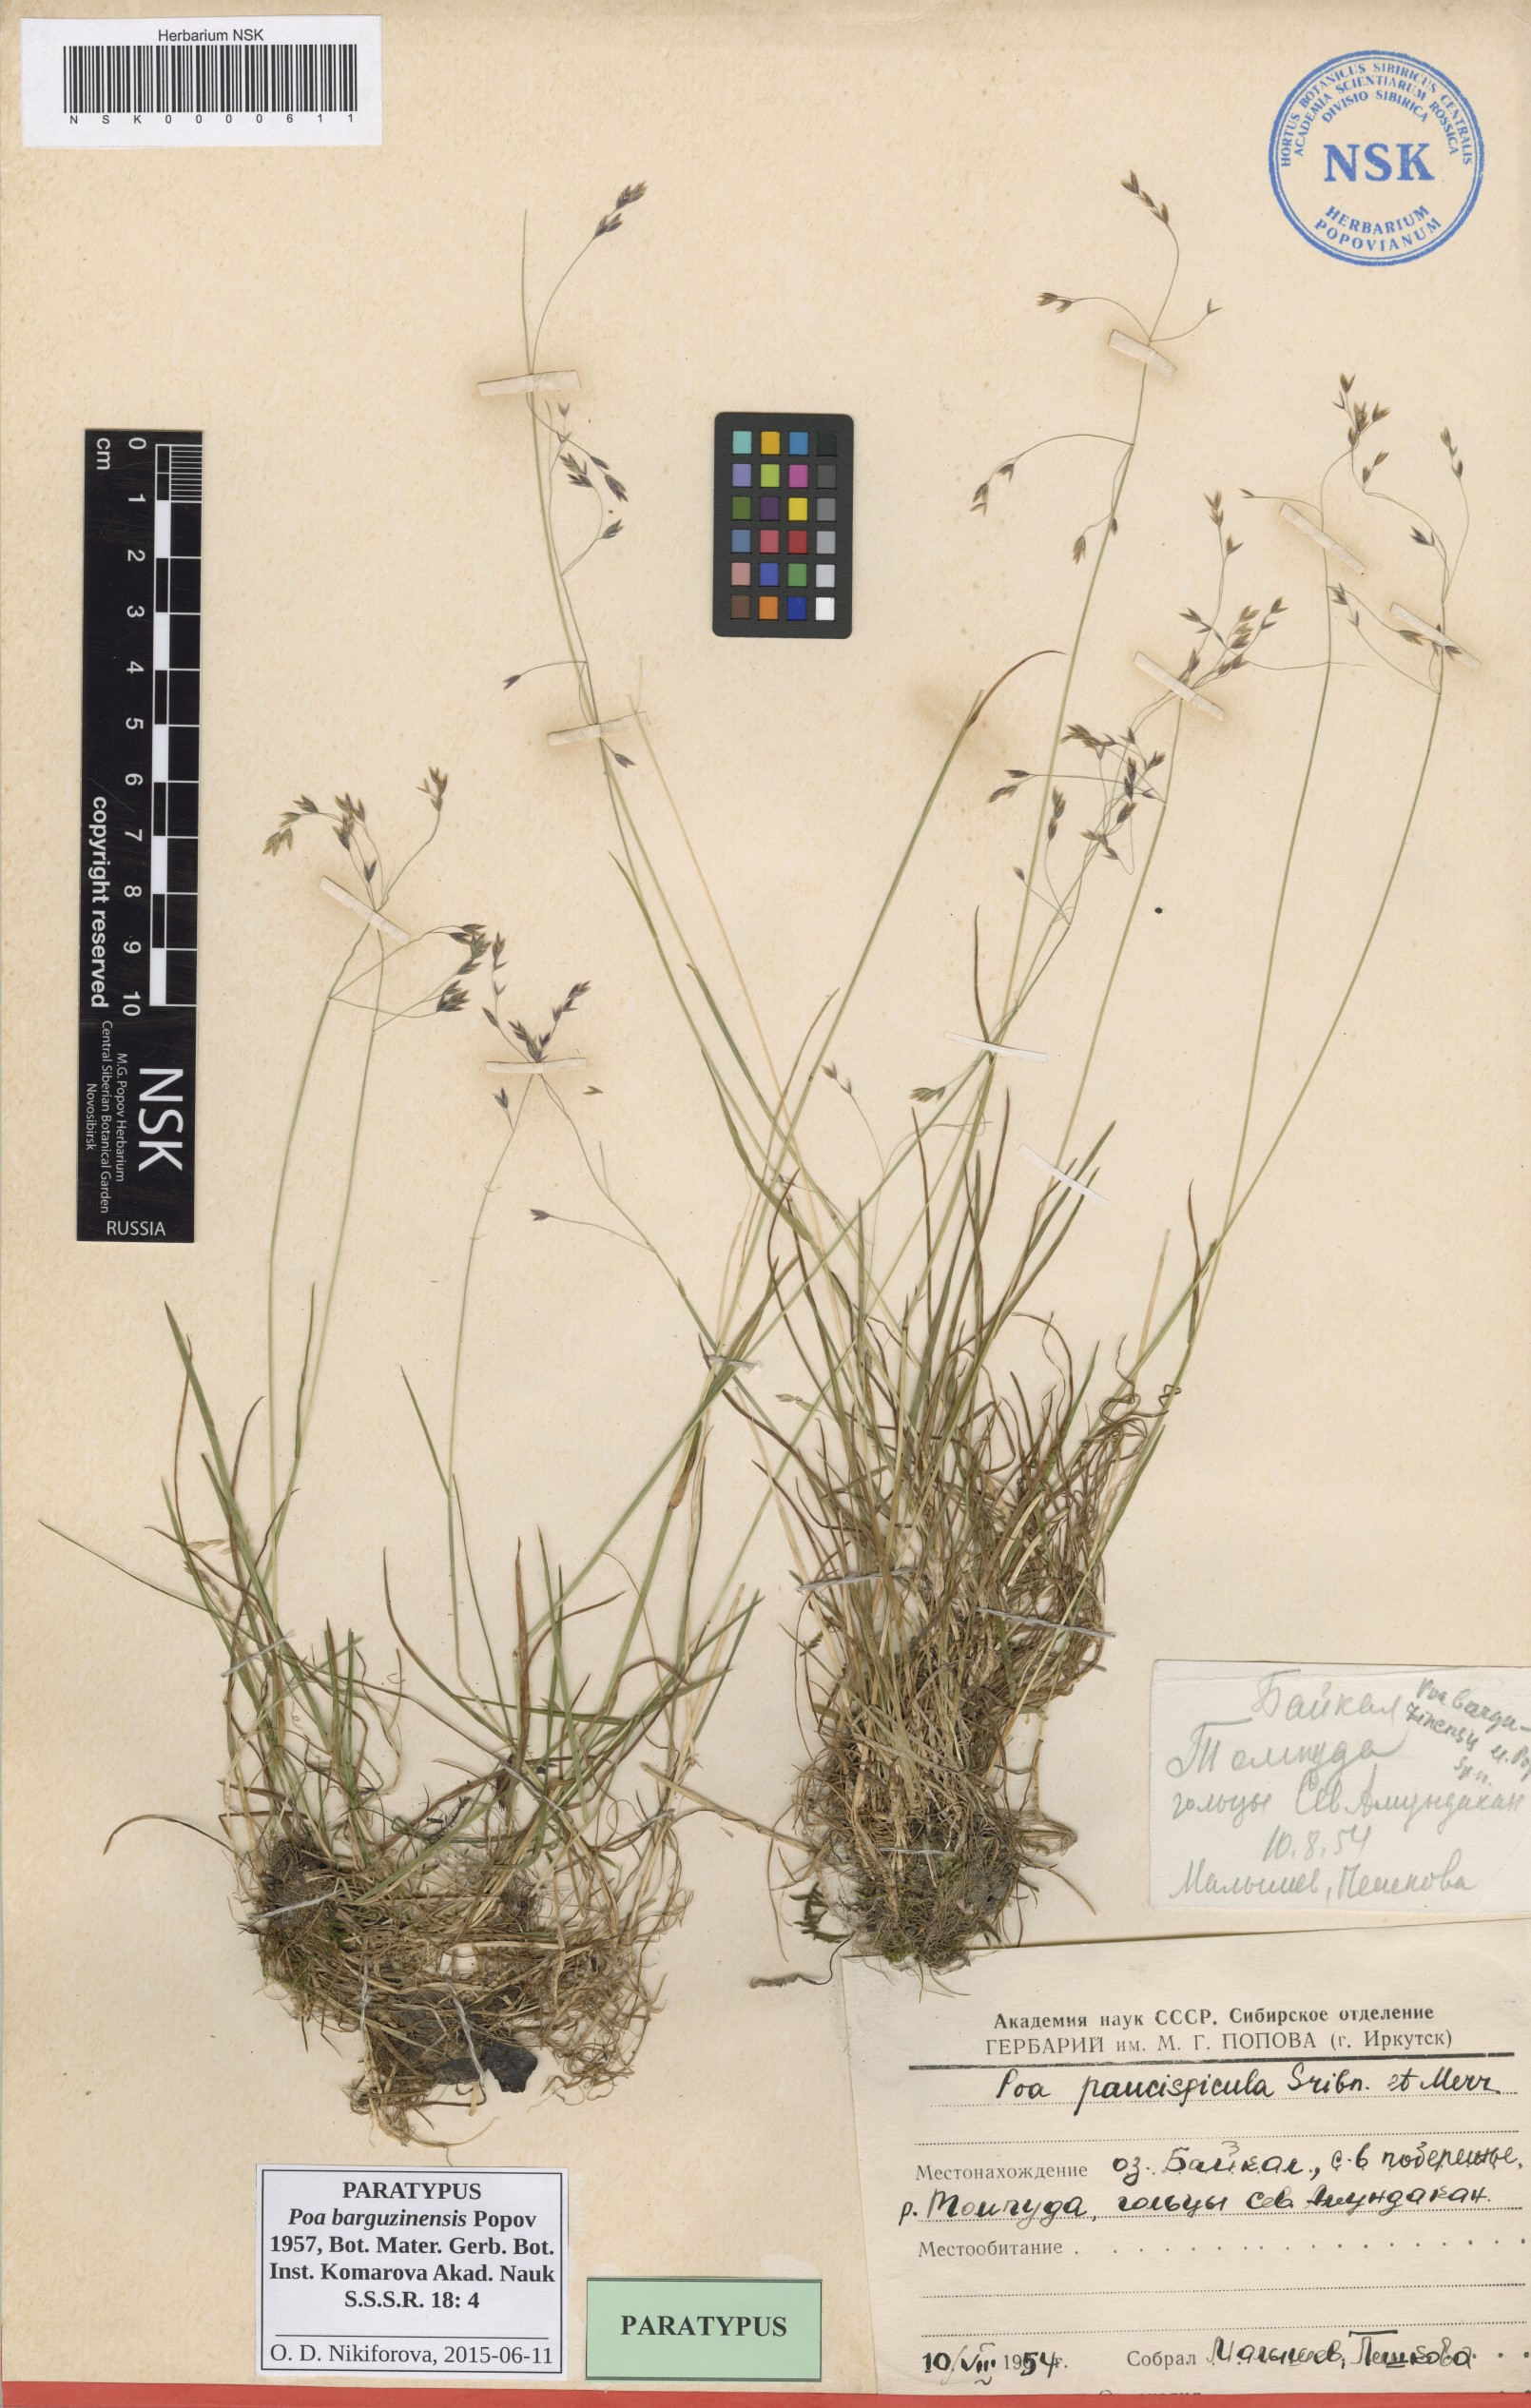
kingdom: Plantae
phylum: Tracheophyta
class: Liliopsida
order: Poales
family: Poaceae
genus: Poa
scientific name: Poa leptocoma
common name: Bog bluegrass
